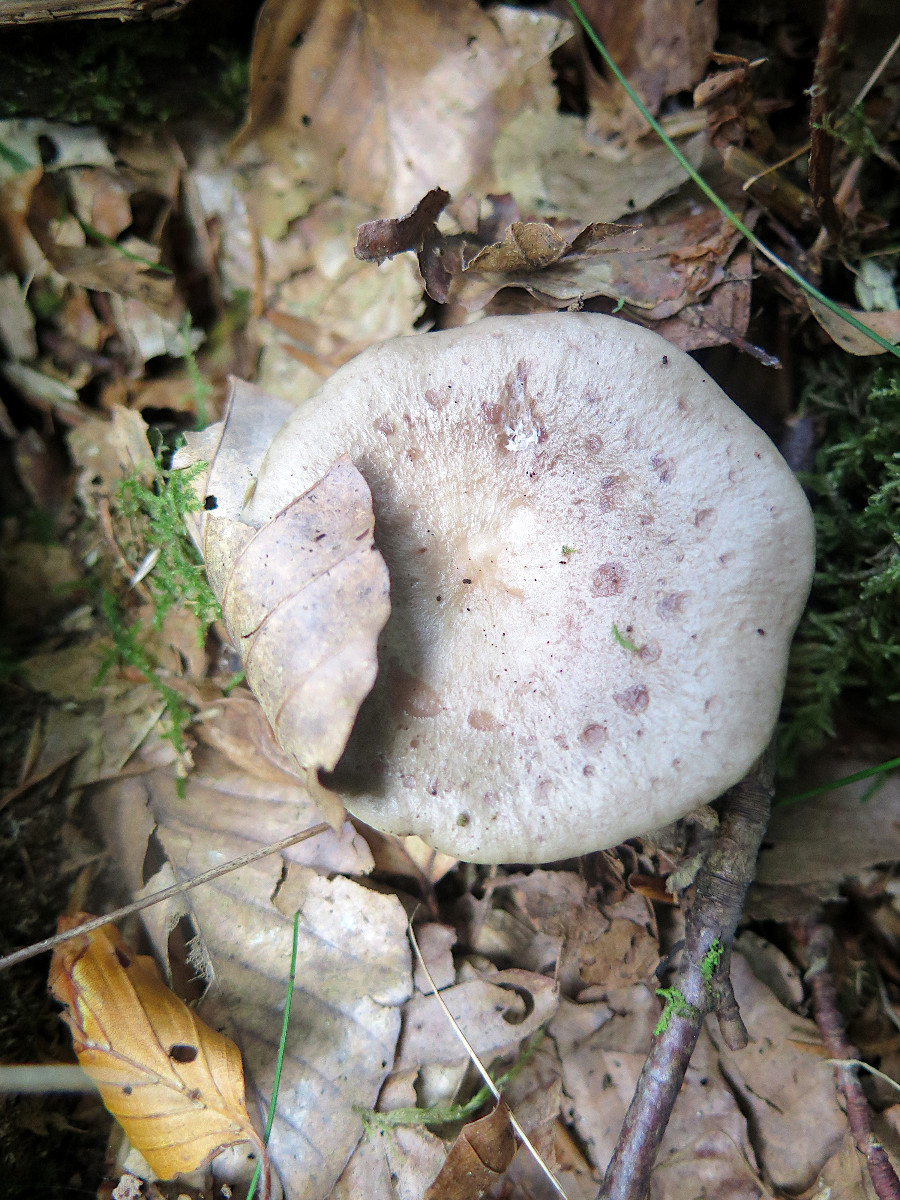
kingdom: Fungi
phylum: Basidiomycota
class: Agaricomycetes
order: Russulales
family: Russulaceae
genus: Lactarius
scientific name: Lactarius blennius
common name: dråbeplettet mælkehat
